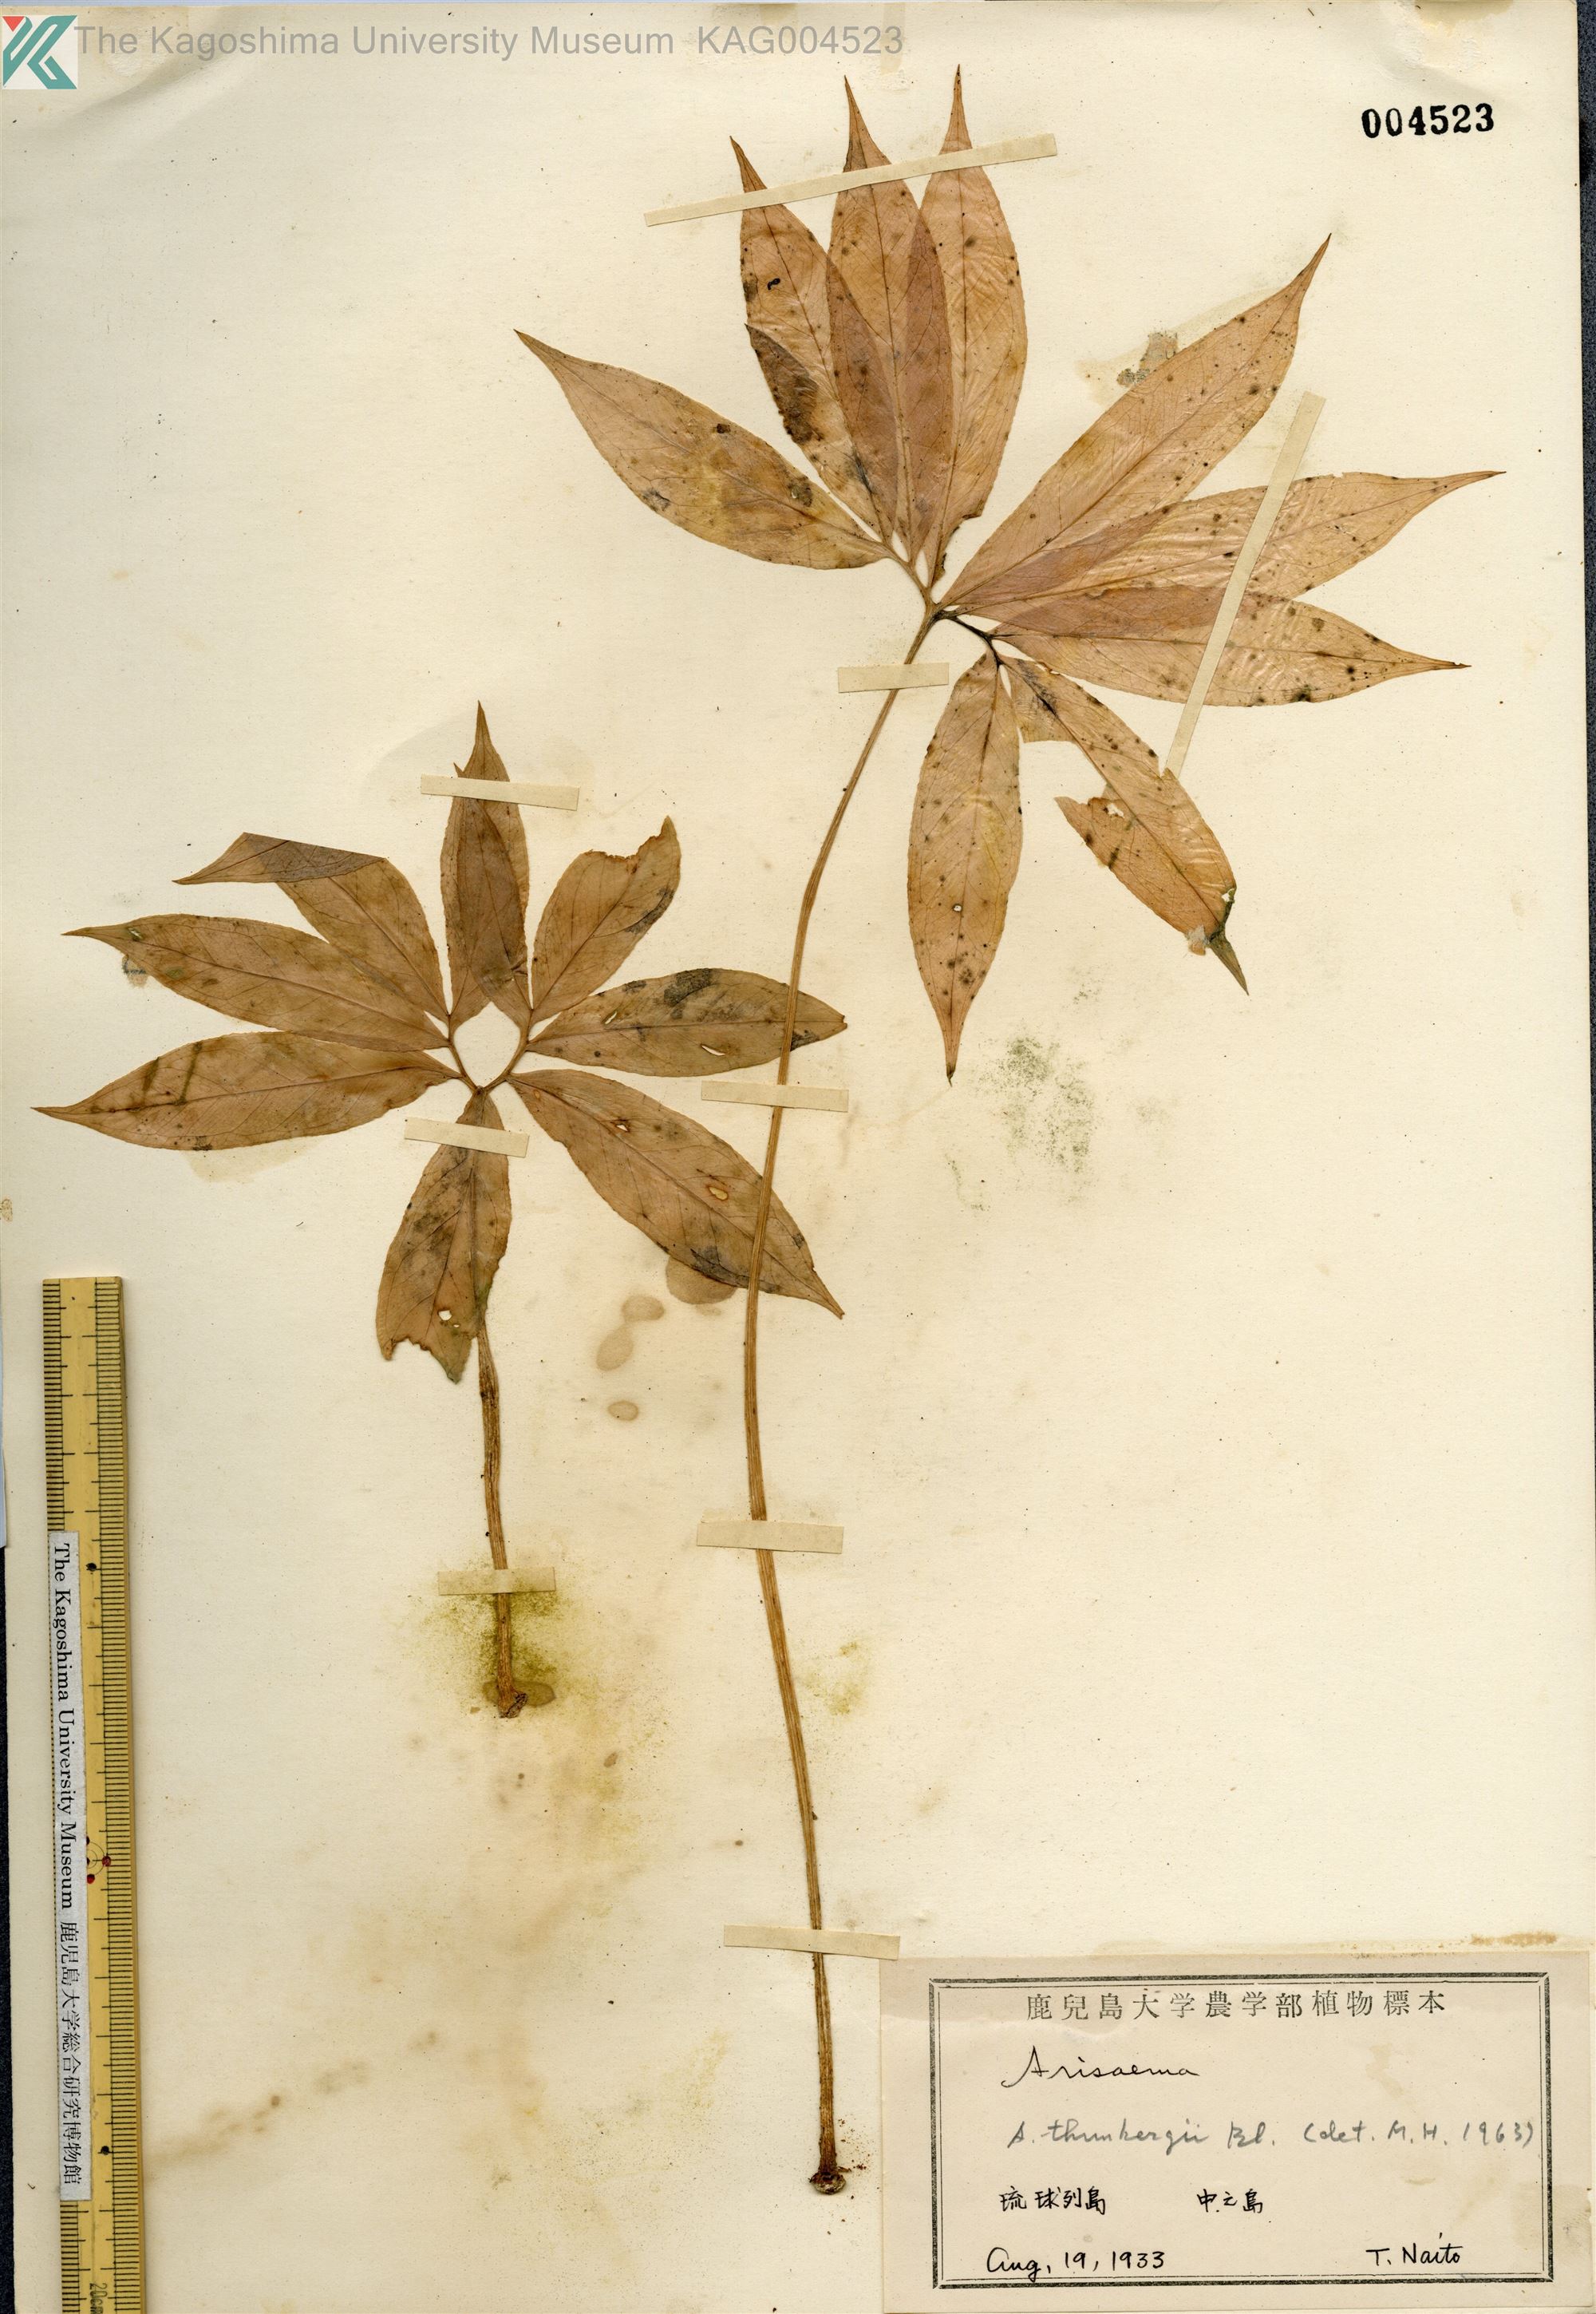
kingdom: Plantae
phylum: Tracheophyta
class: Liliopsida
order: Alismatales
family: Araceae
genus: Arisaema
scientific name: Arisaema thunbergii
